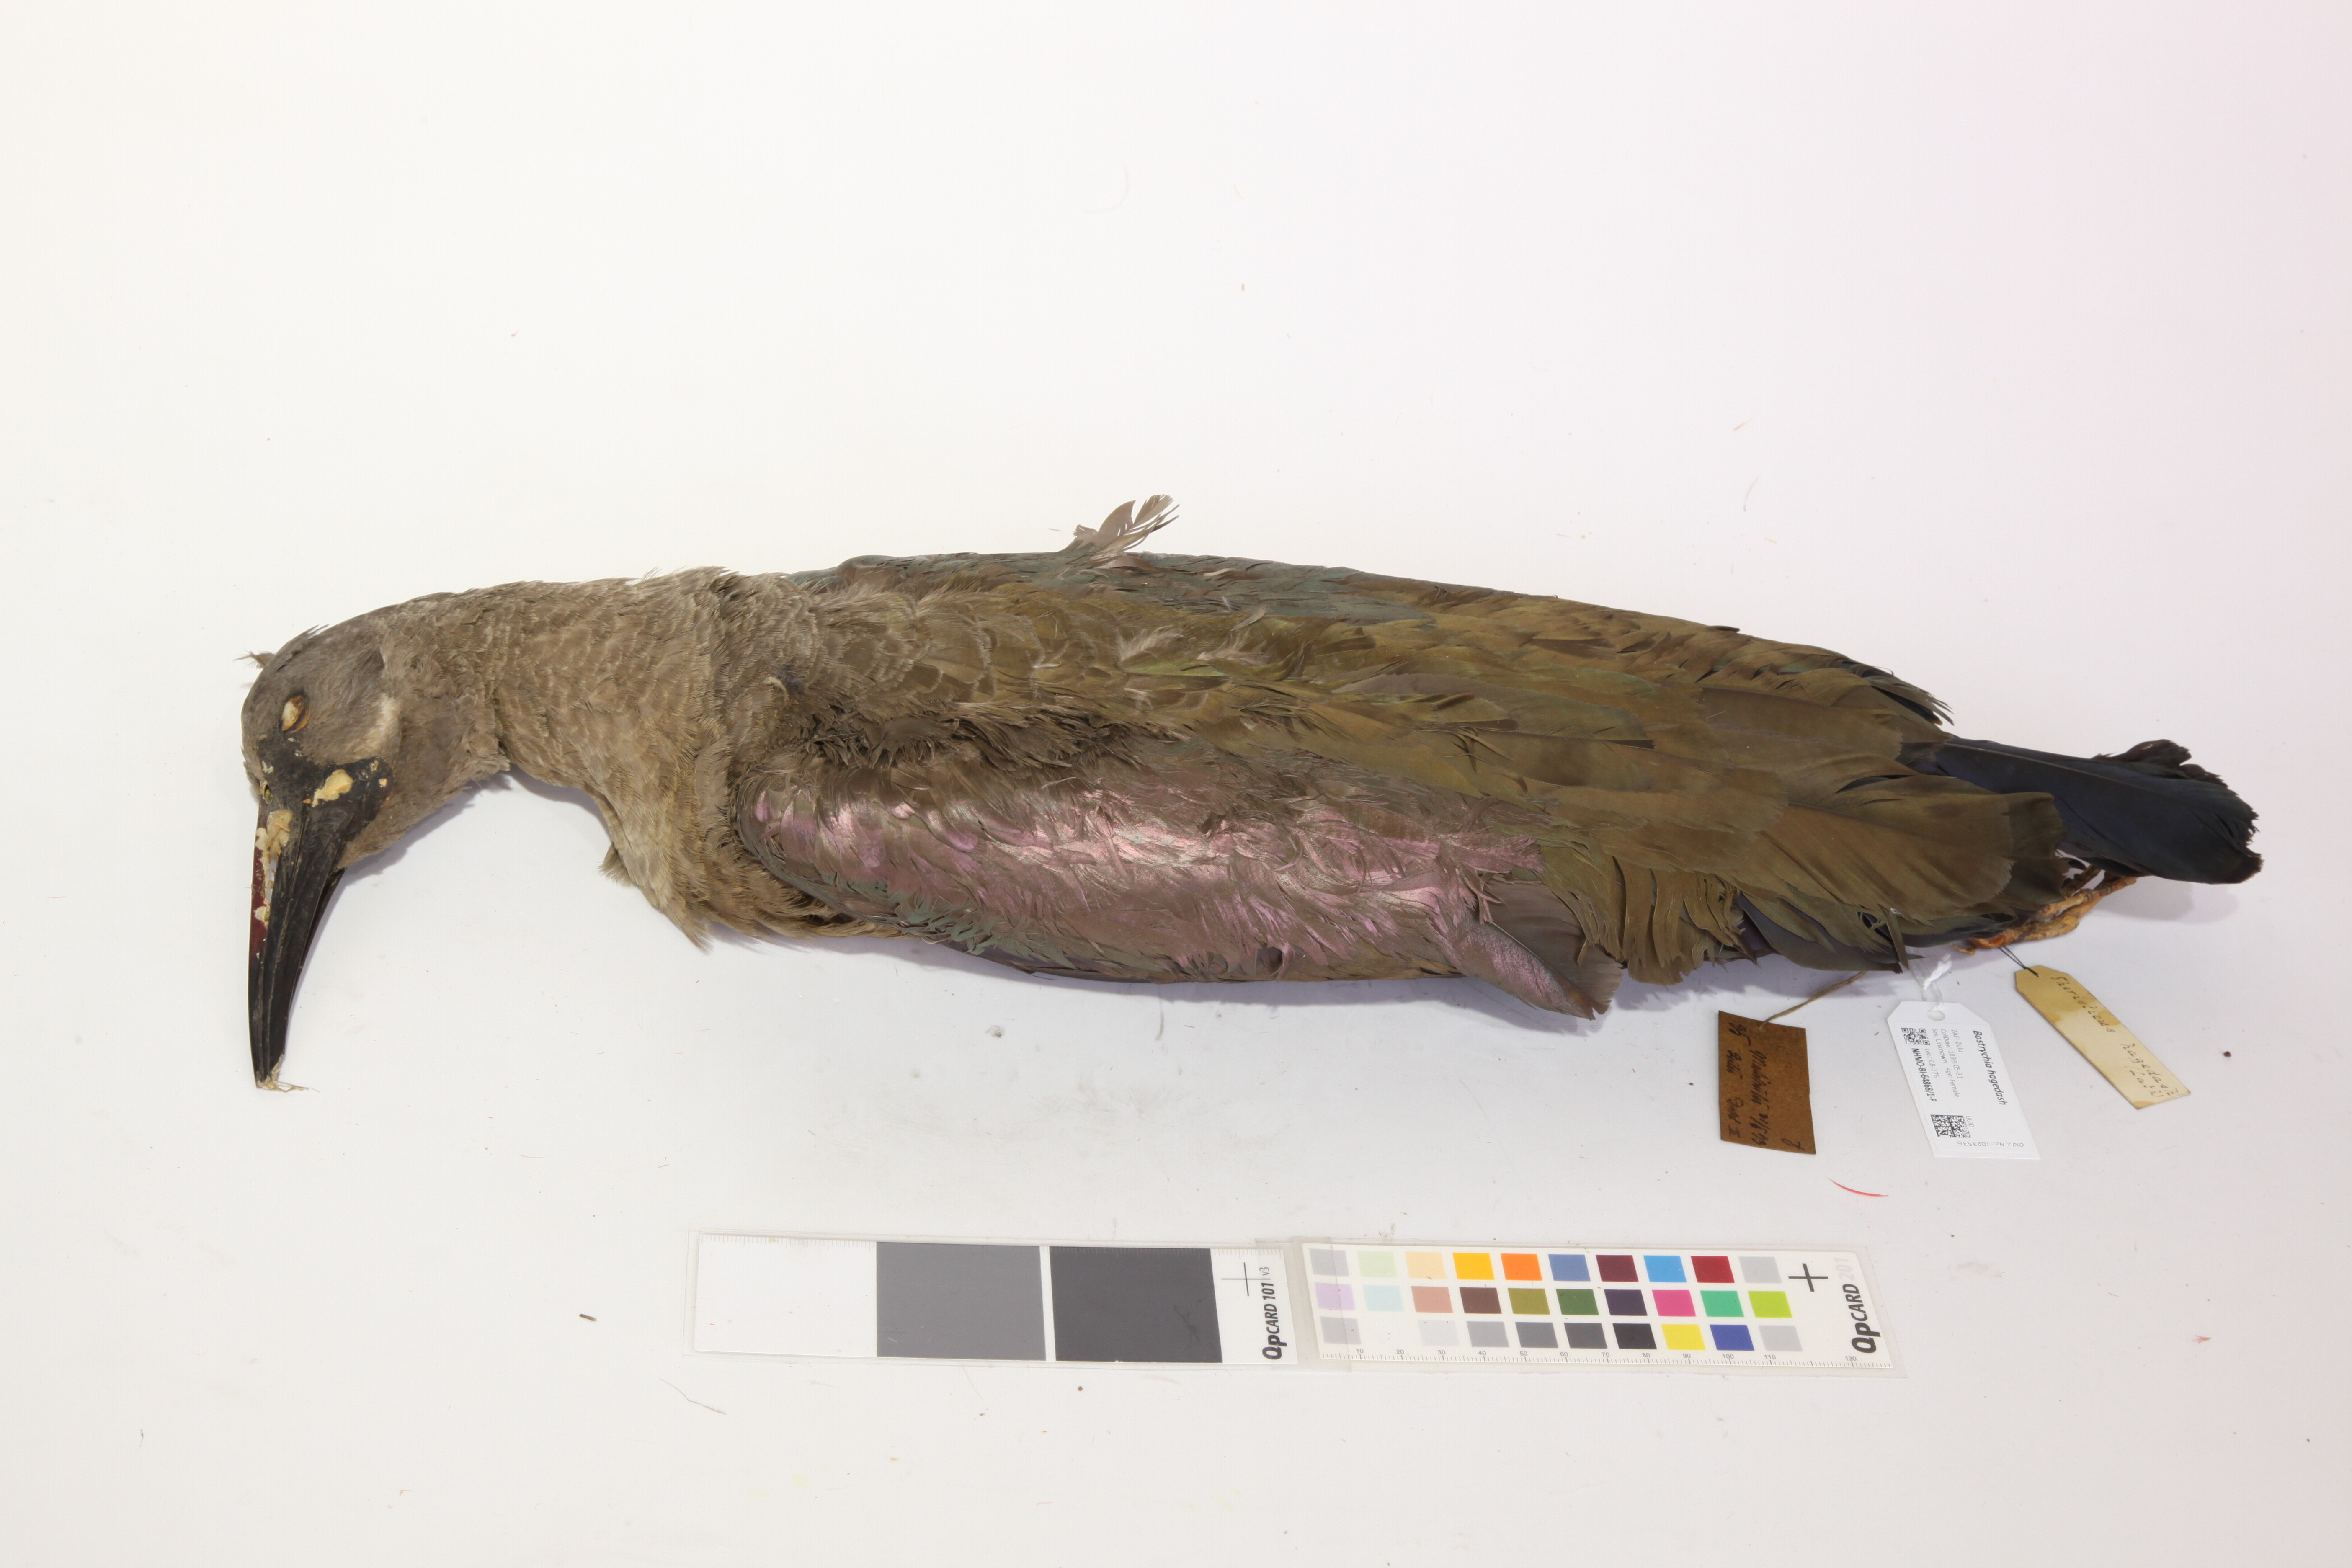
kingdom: Animalia
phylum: Chordata
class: Aves
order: Pelecaniformes
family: Threskiornithidae
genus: Bostrychia
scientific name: Bostrychia hagedash
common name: Hadada ibis
